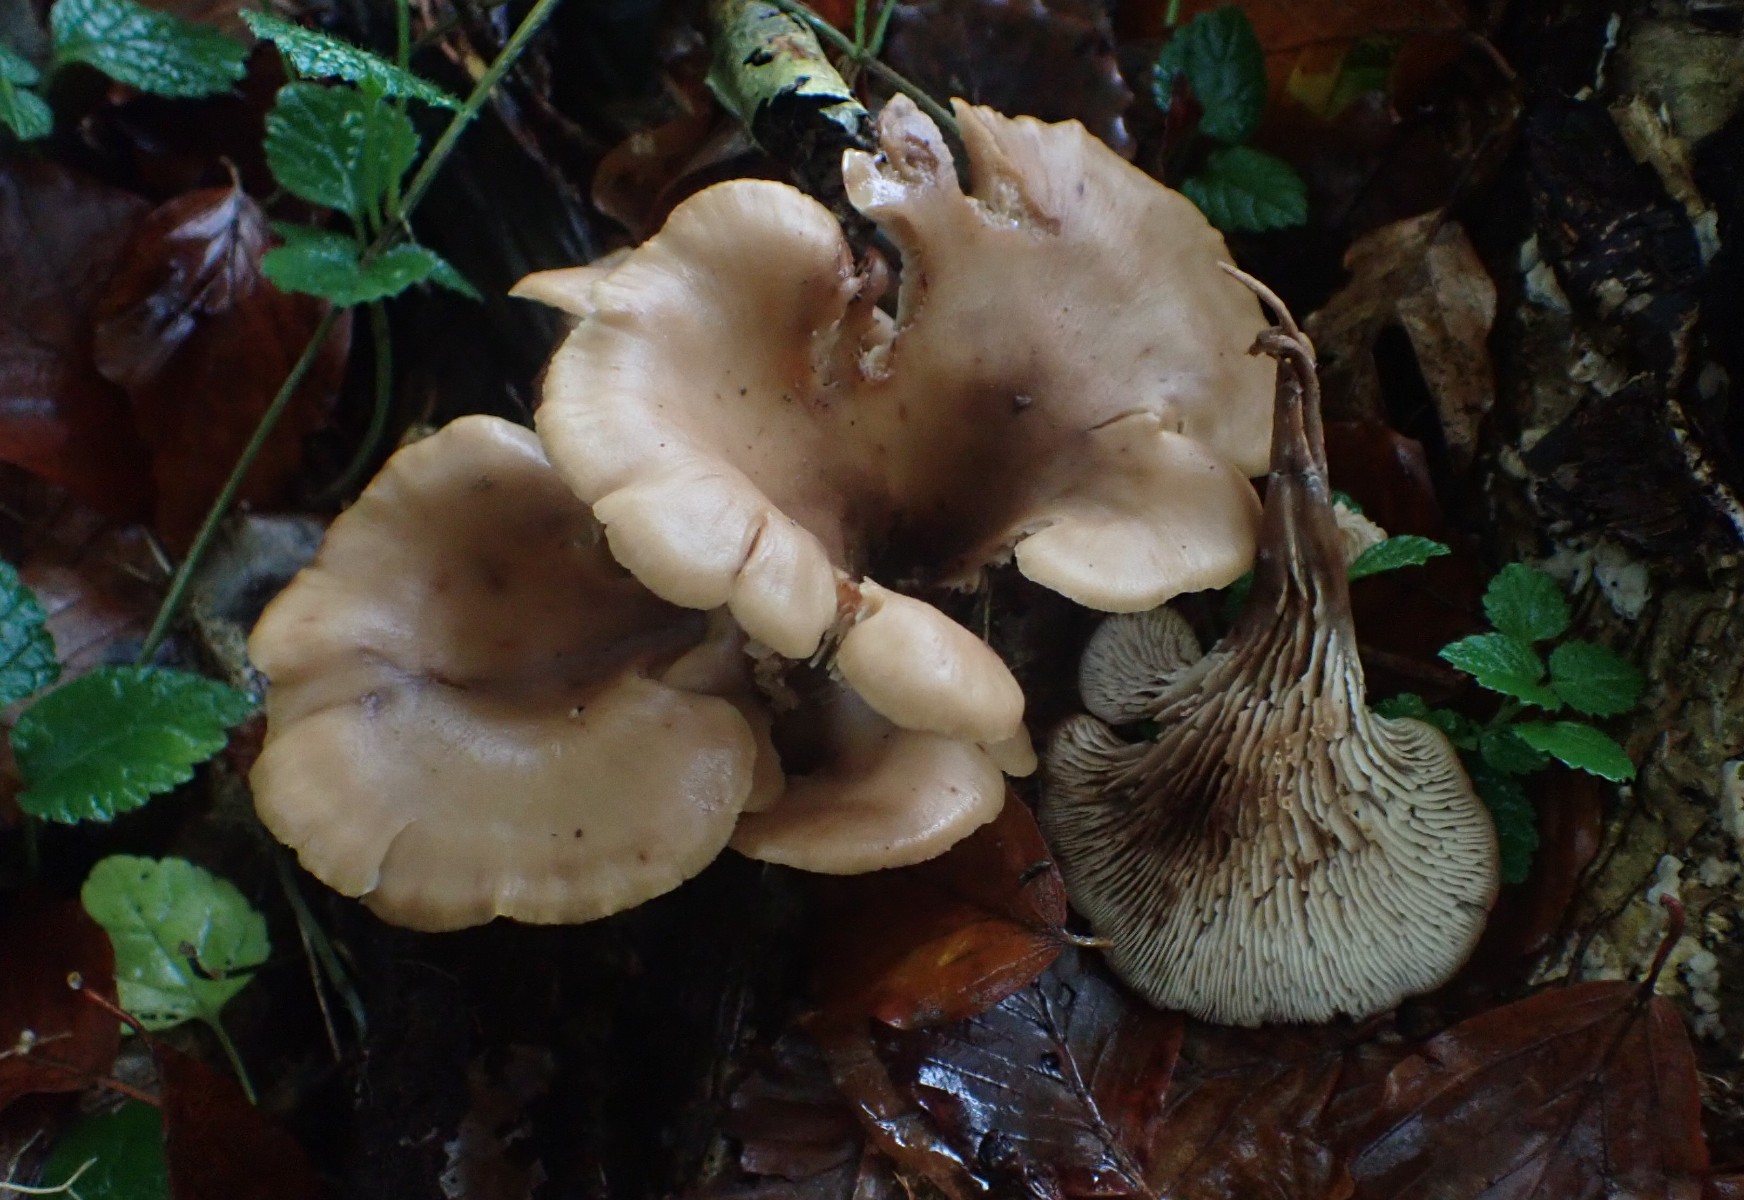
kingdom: Fungi
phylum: Basidiomycota
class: Agaricomycetes
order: Russulales
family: Auriscalpiaceae
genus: Lentinellus
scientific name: Lentinellus cochleatus
